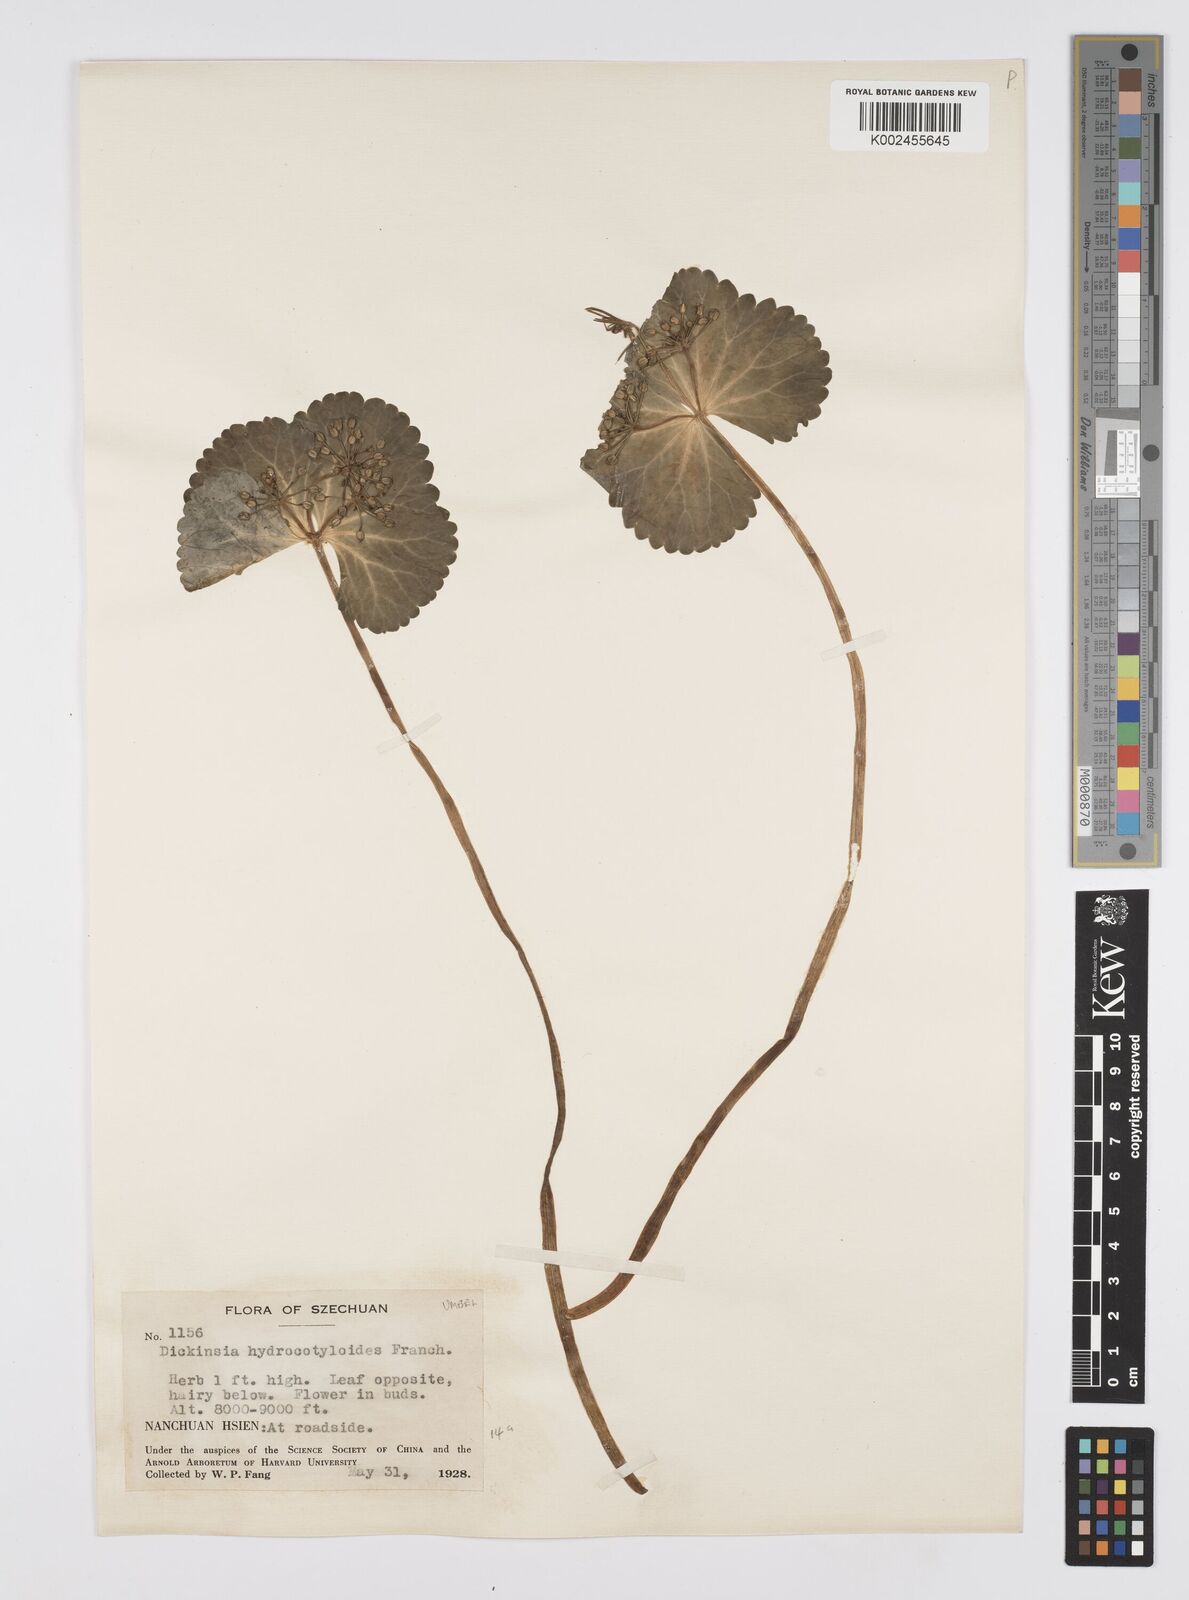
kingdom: Plantae
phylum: Tracheophyta
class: Magnoliopsida
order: Apiales
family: Apiaceae
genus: Dickinsia
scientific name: Dickinsia hydrocotyloides
